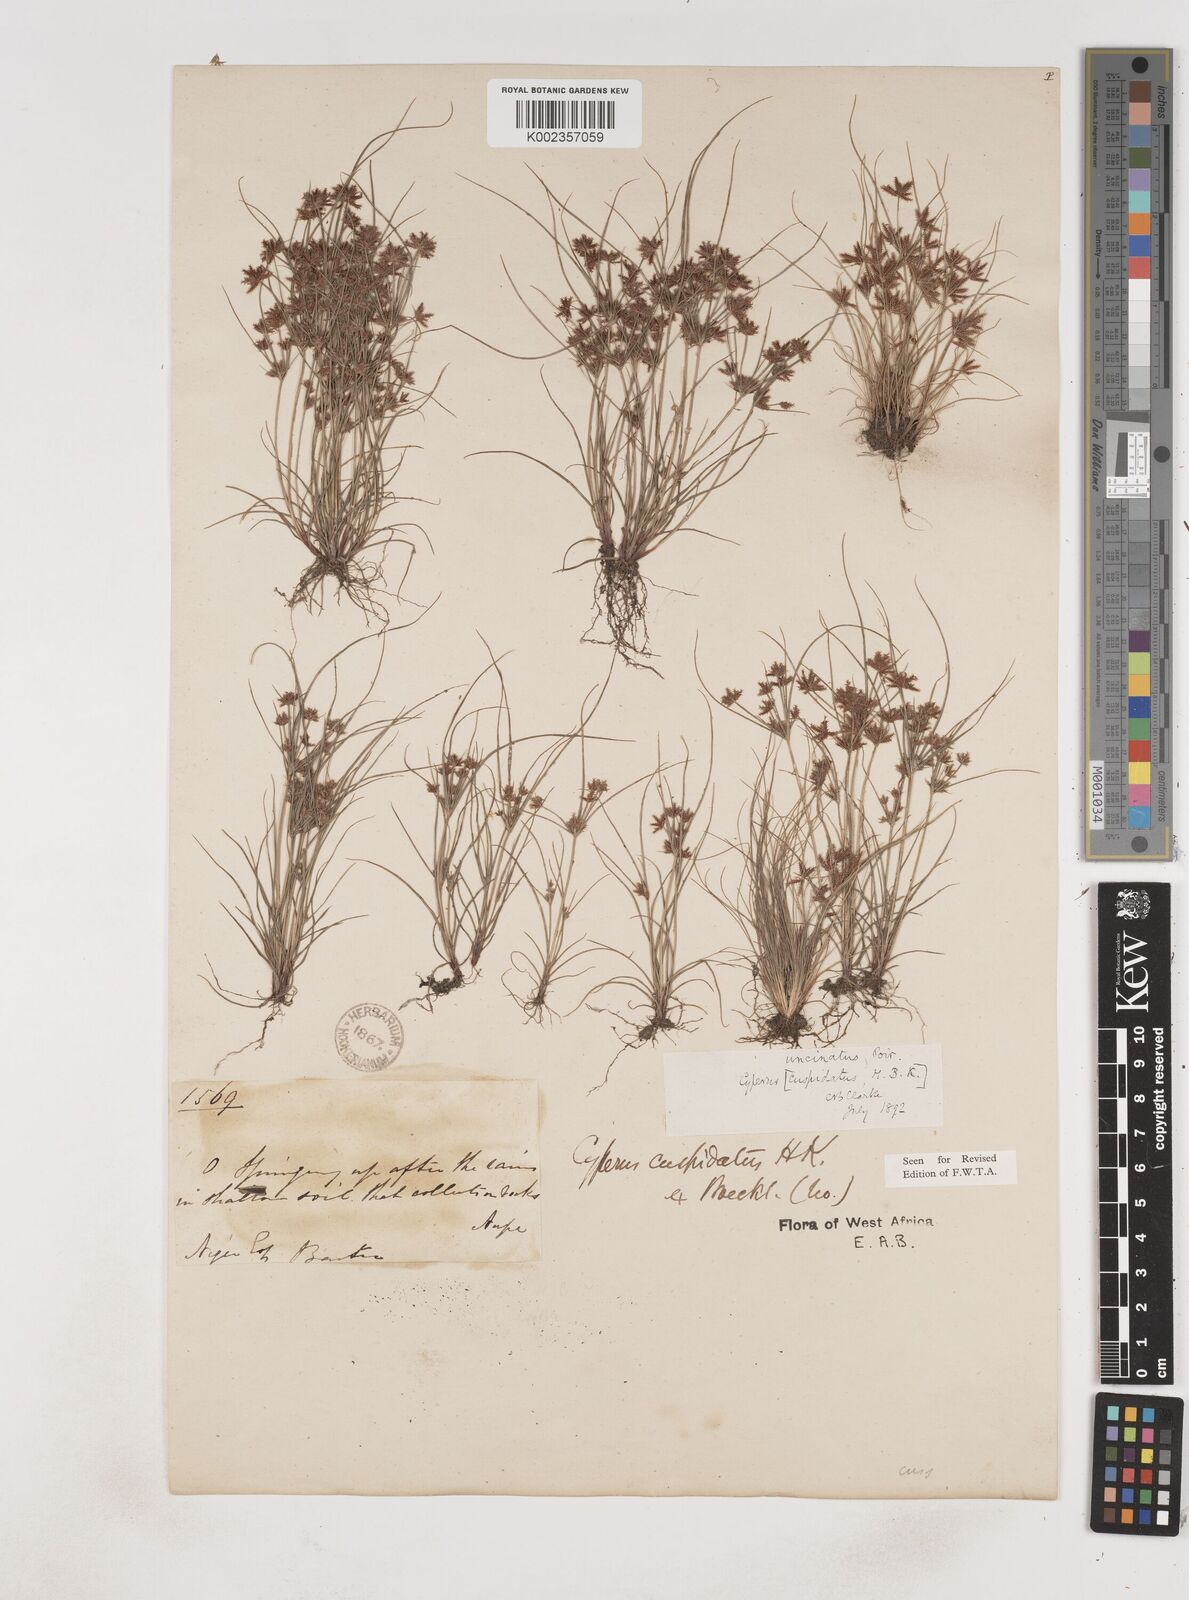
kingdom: Plantae
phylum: Tracheophyta
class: Liliopsida
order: Poales
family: Cyperaceae
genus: Cyperus
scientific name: Cyperus
